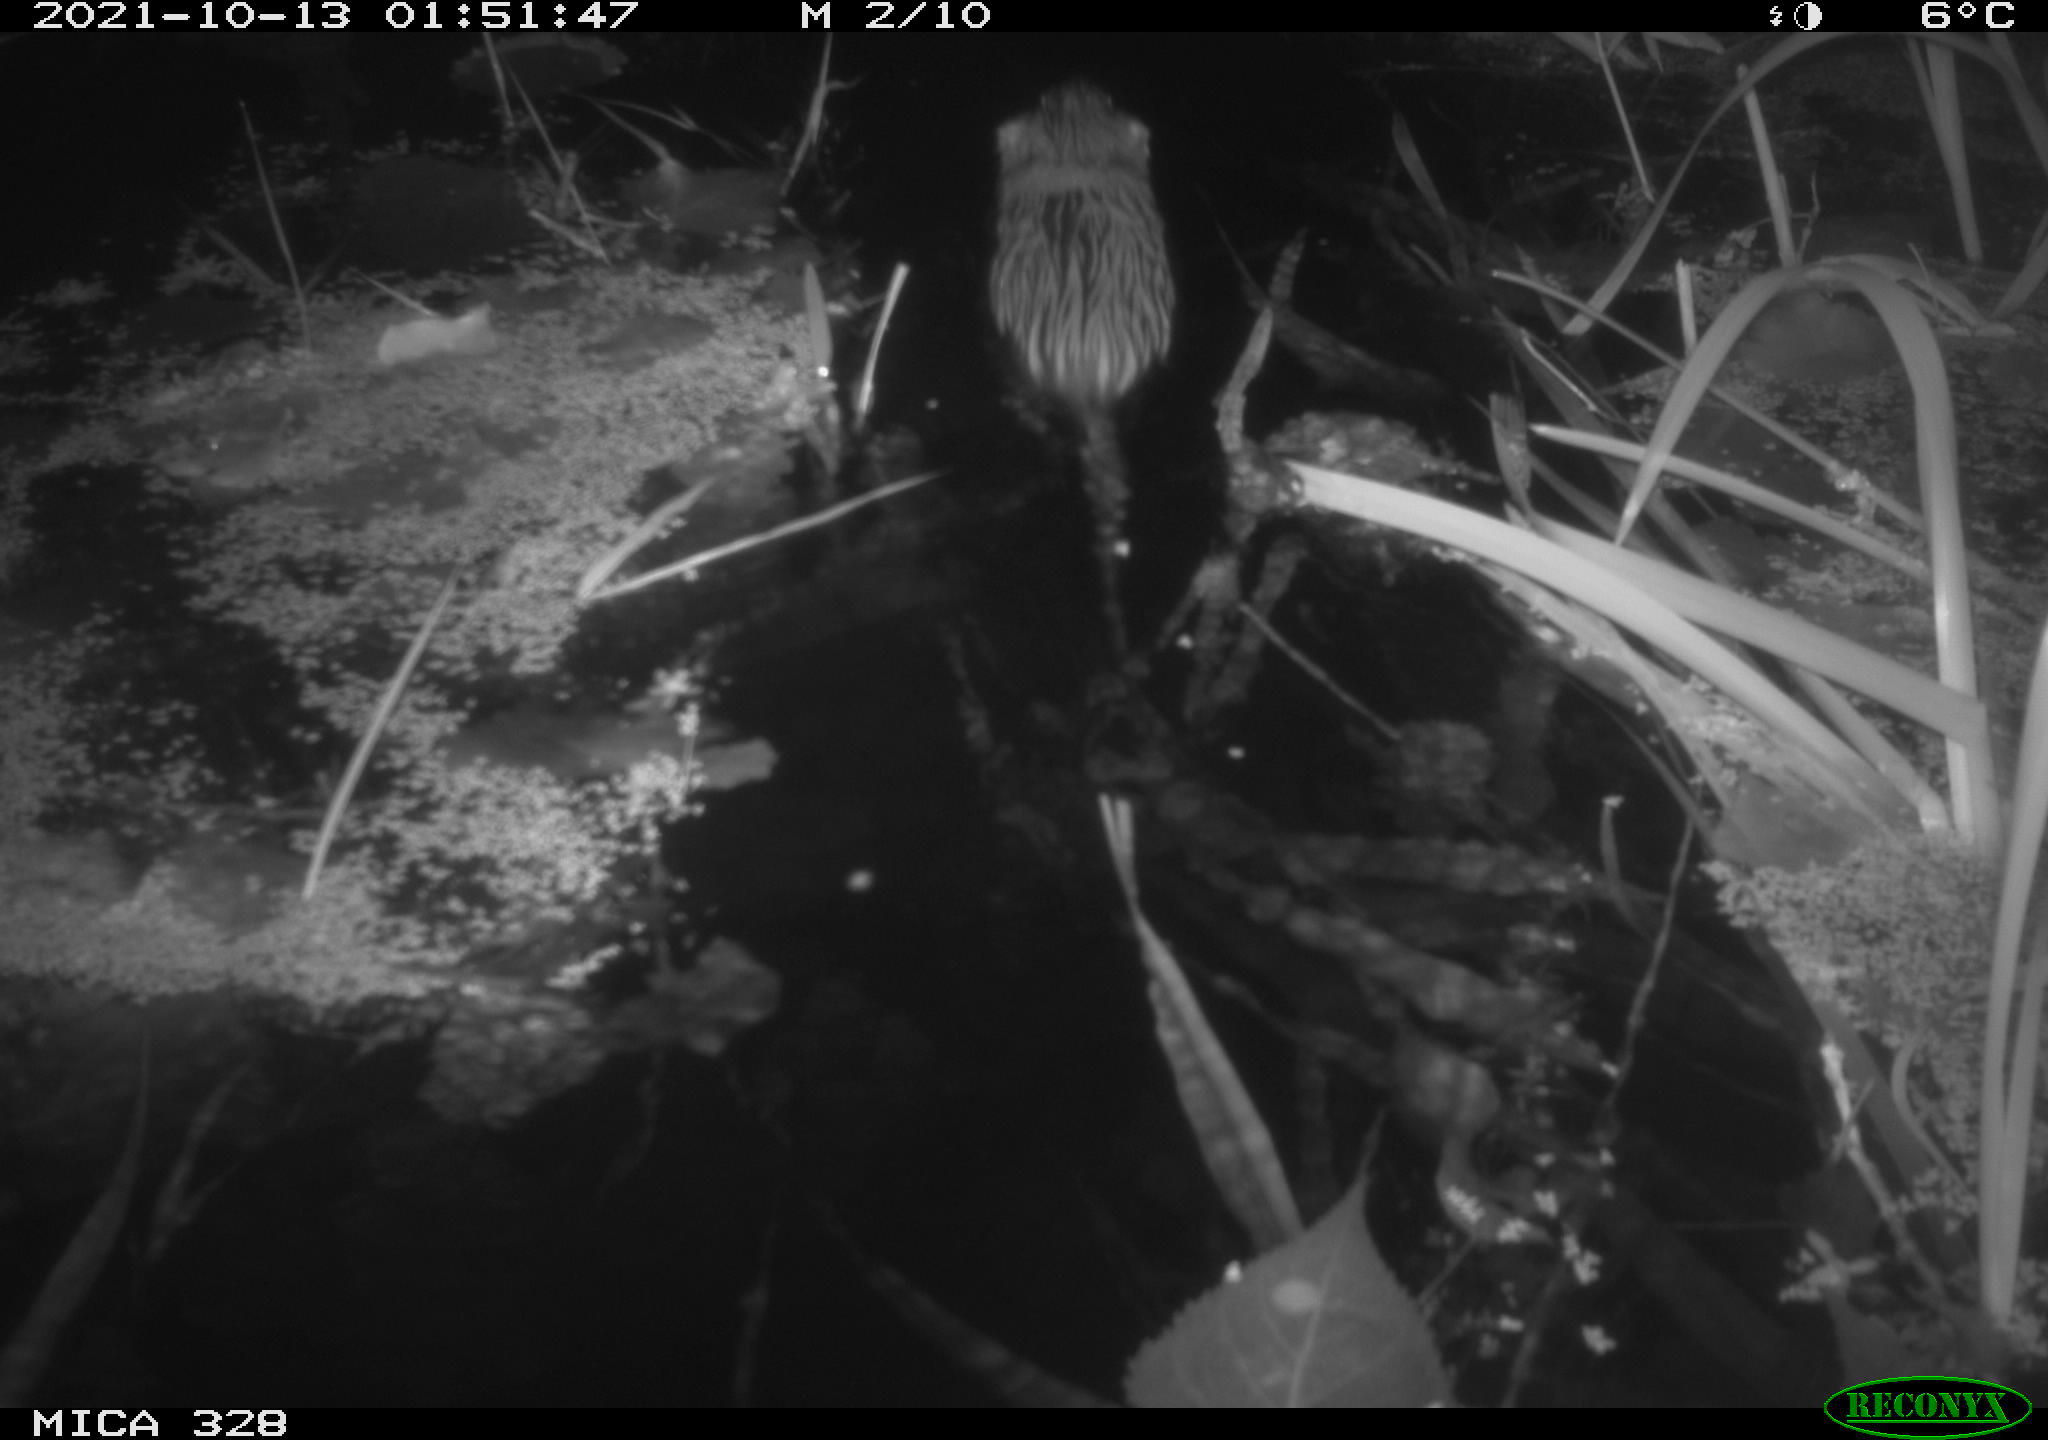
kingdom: Animalia
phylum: Chordata
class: Mammalia
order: Rodentia
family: Cricetidae
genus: Ondatra
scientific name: Ondatra zibethicus
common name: Muskrat
